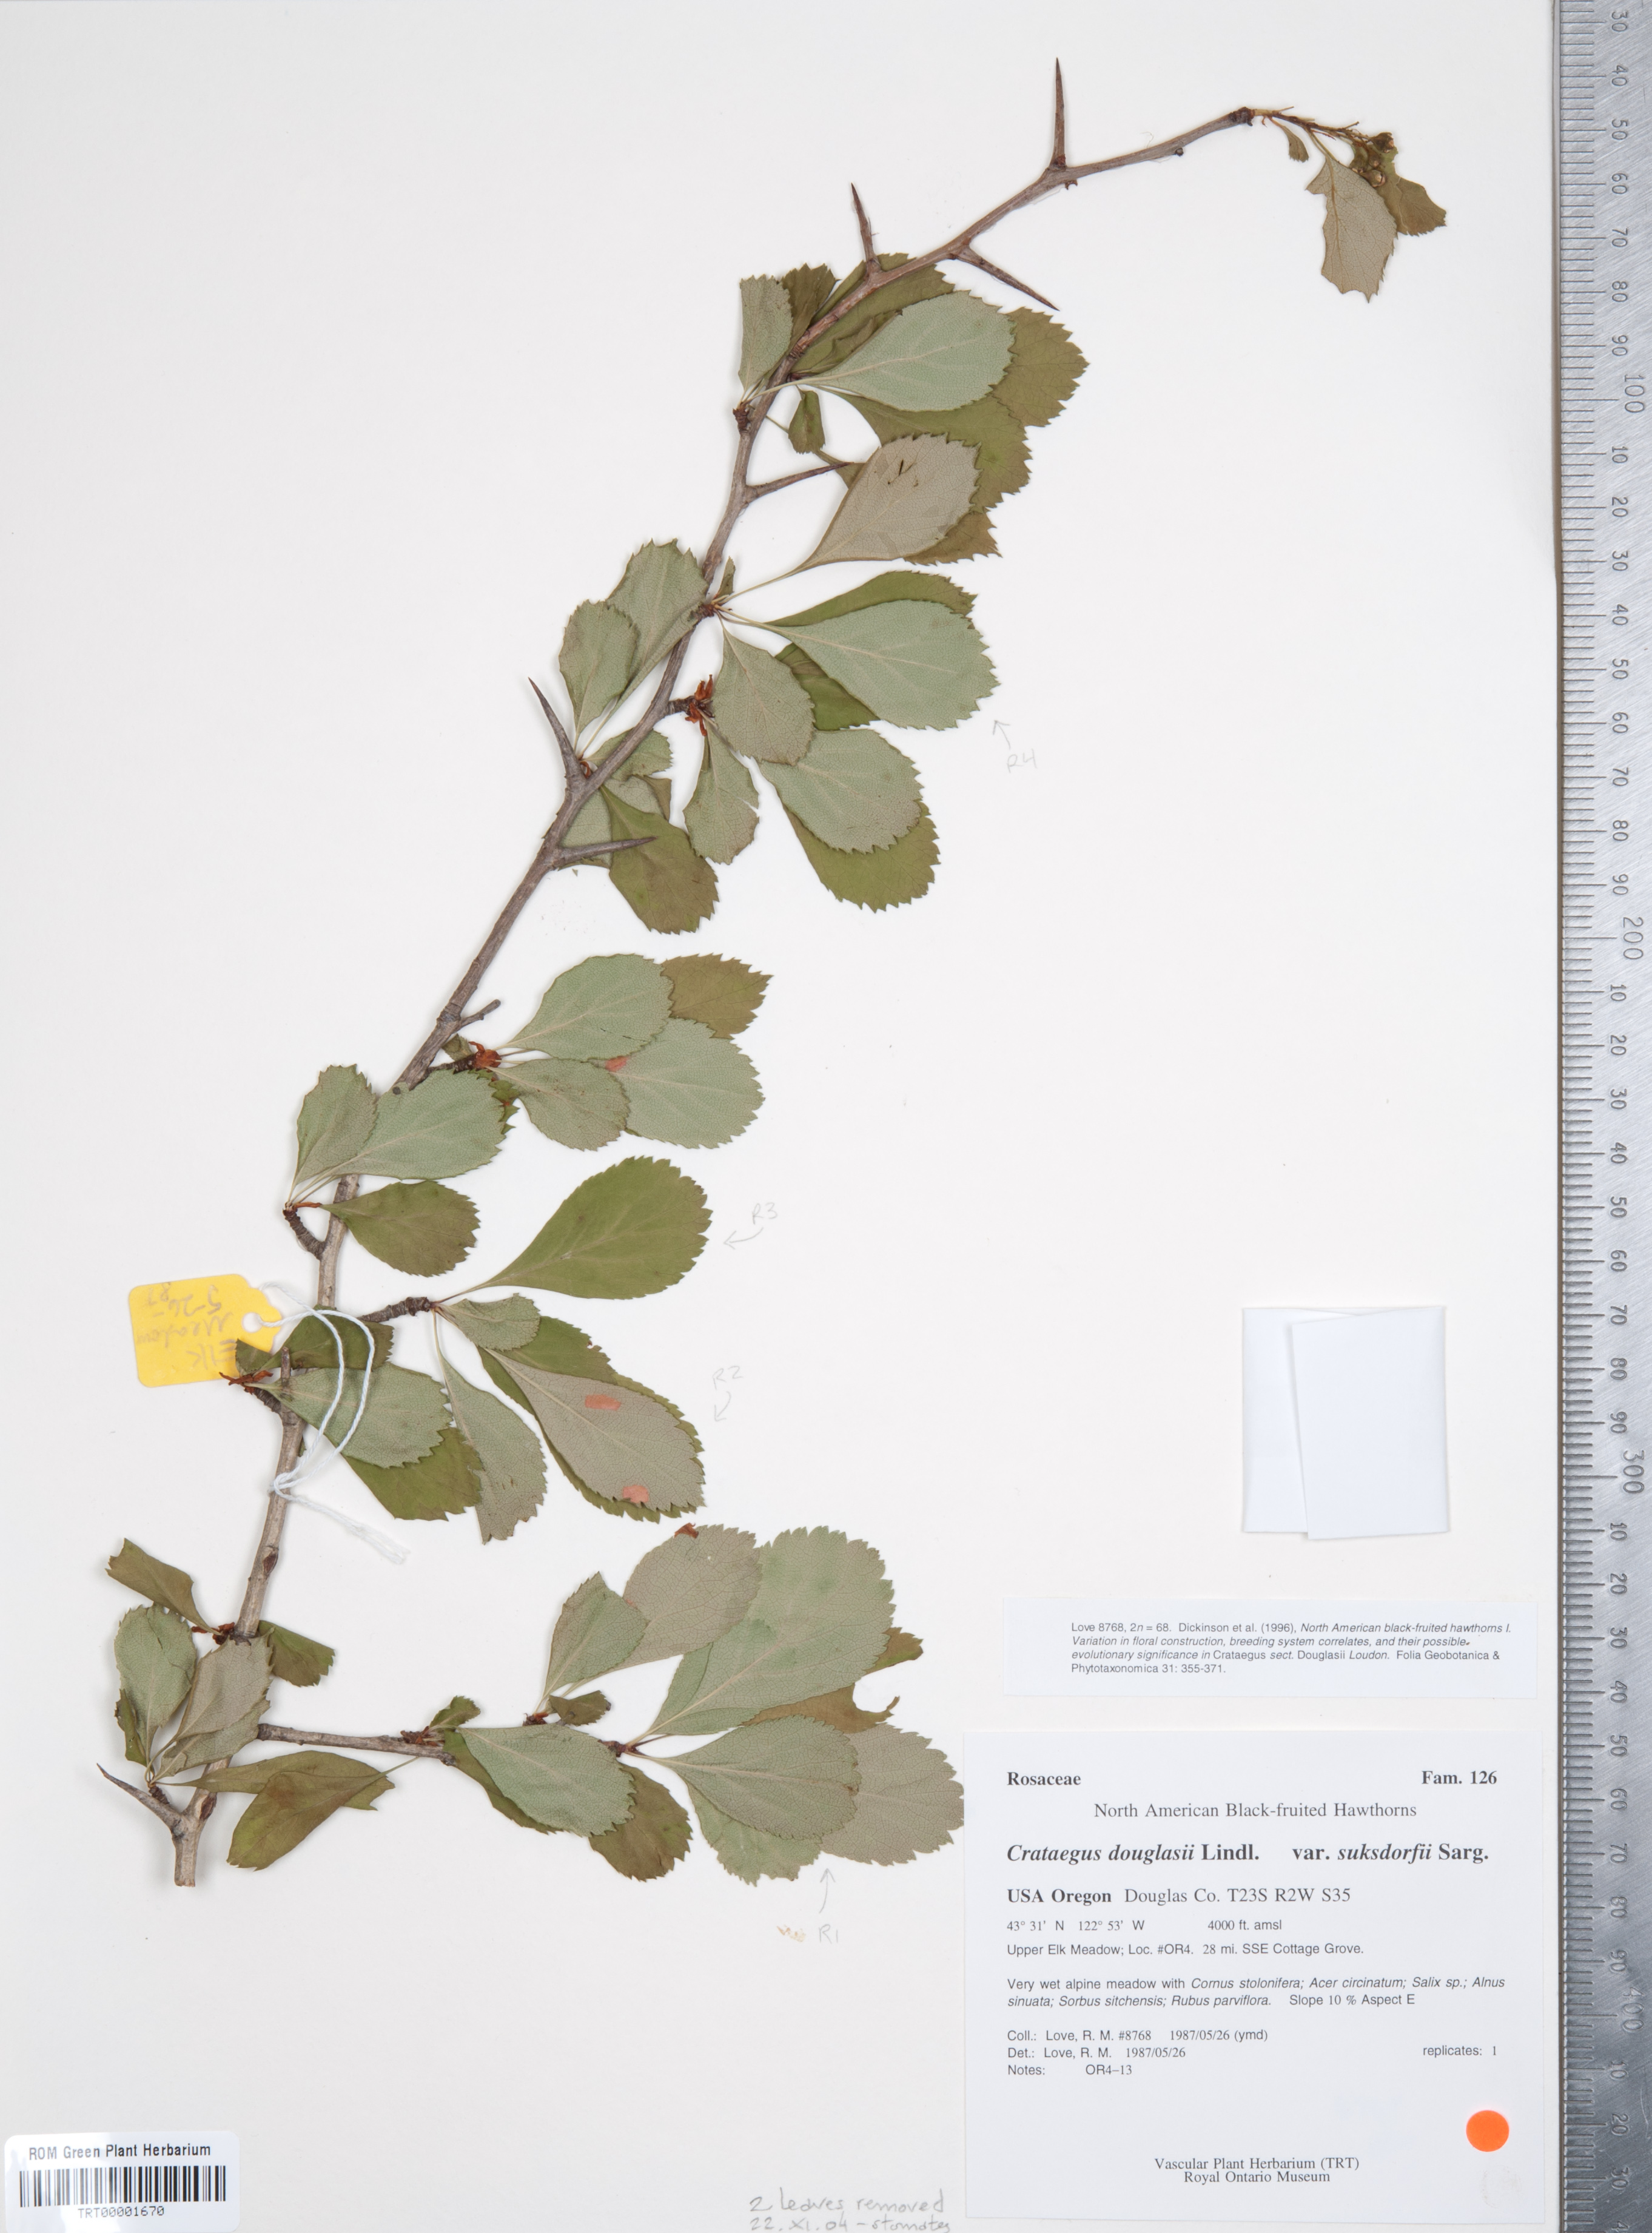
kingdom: Plantae
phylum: Tracheophyta
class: Magnoliopsida
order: Rosales
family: Rosaceae
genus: Crataegus
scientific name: Crataegus gaylussacia
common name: Huckleberry hawthorn
